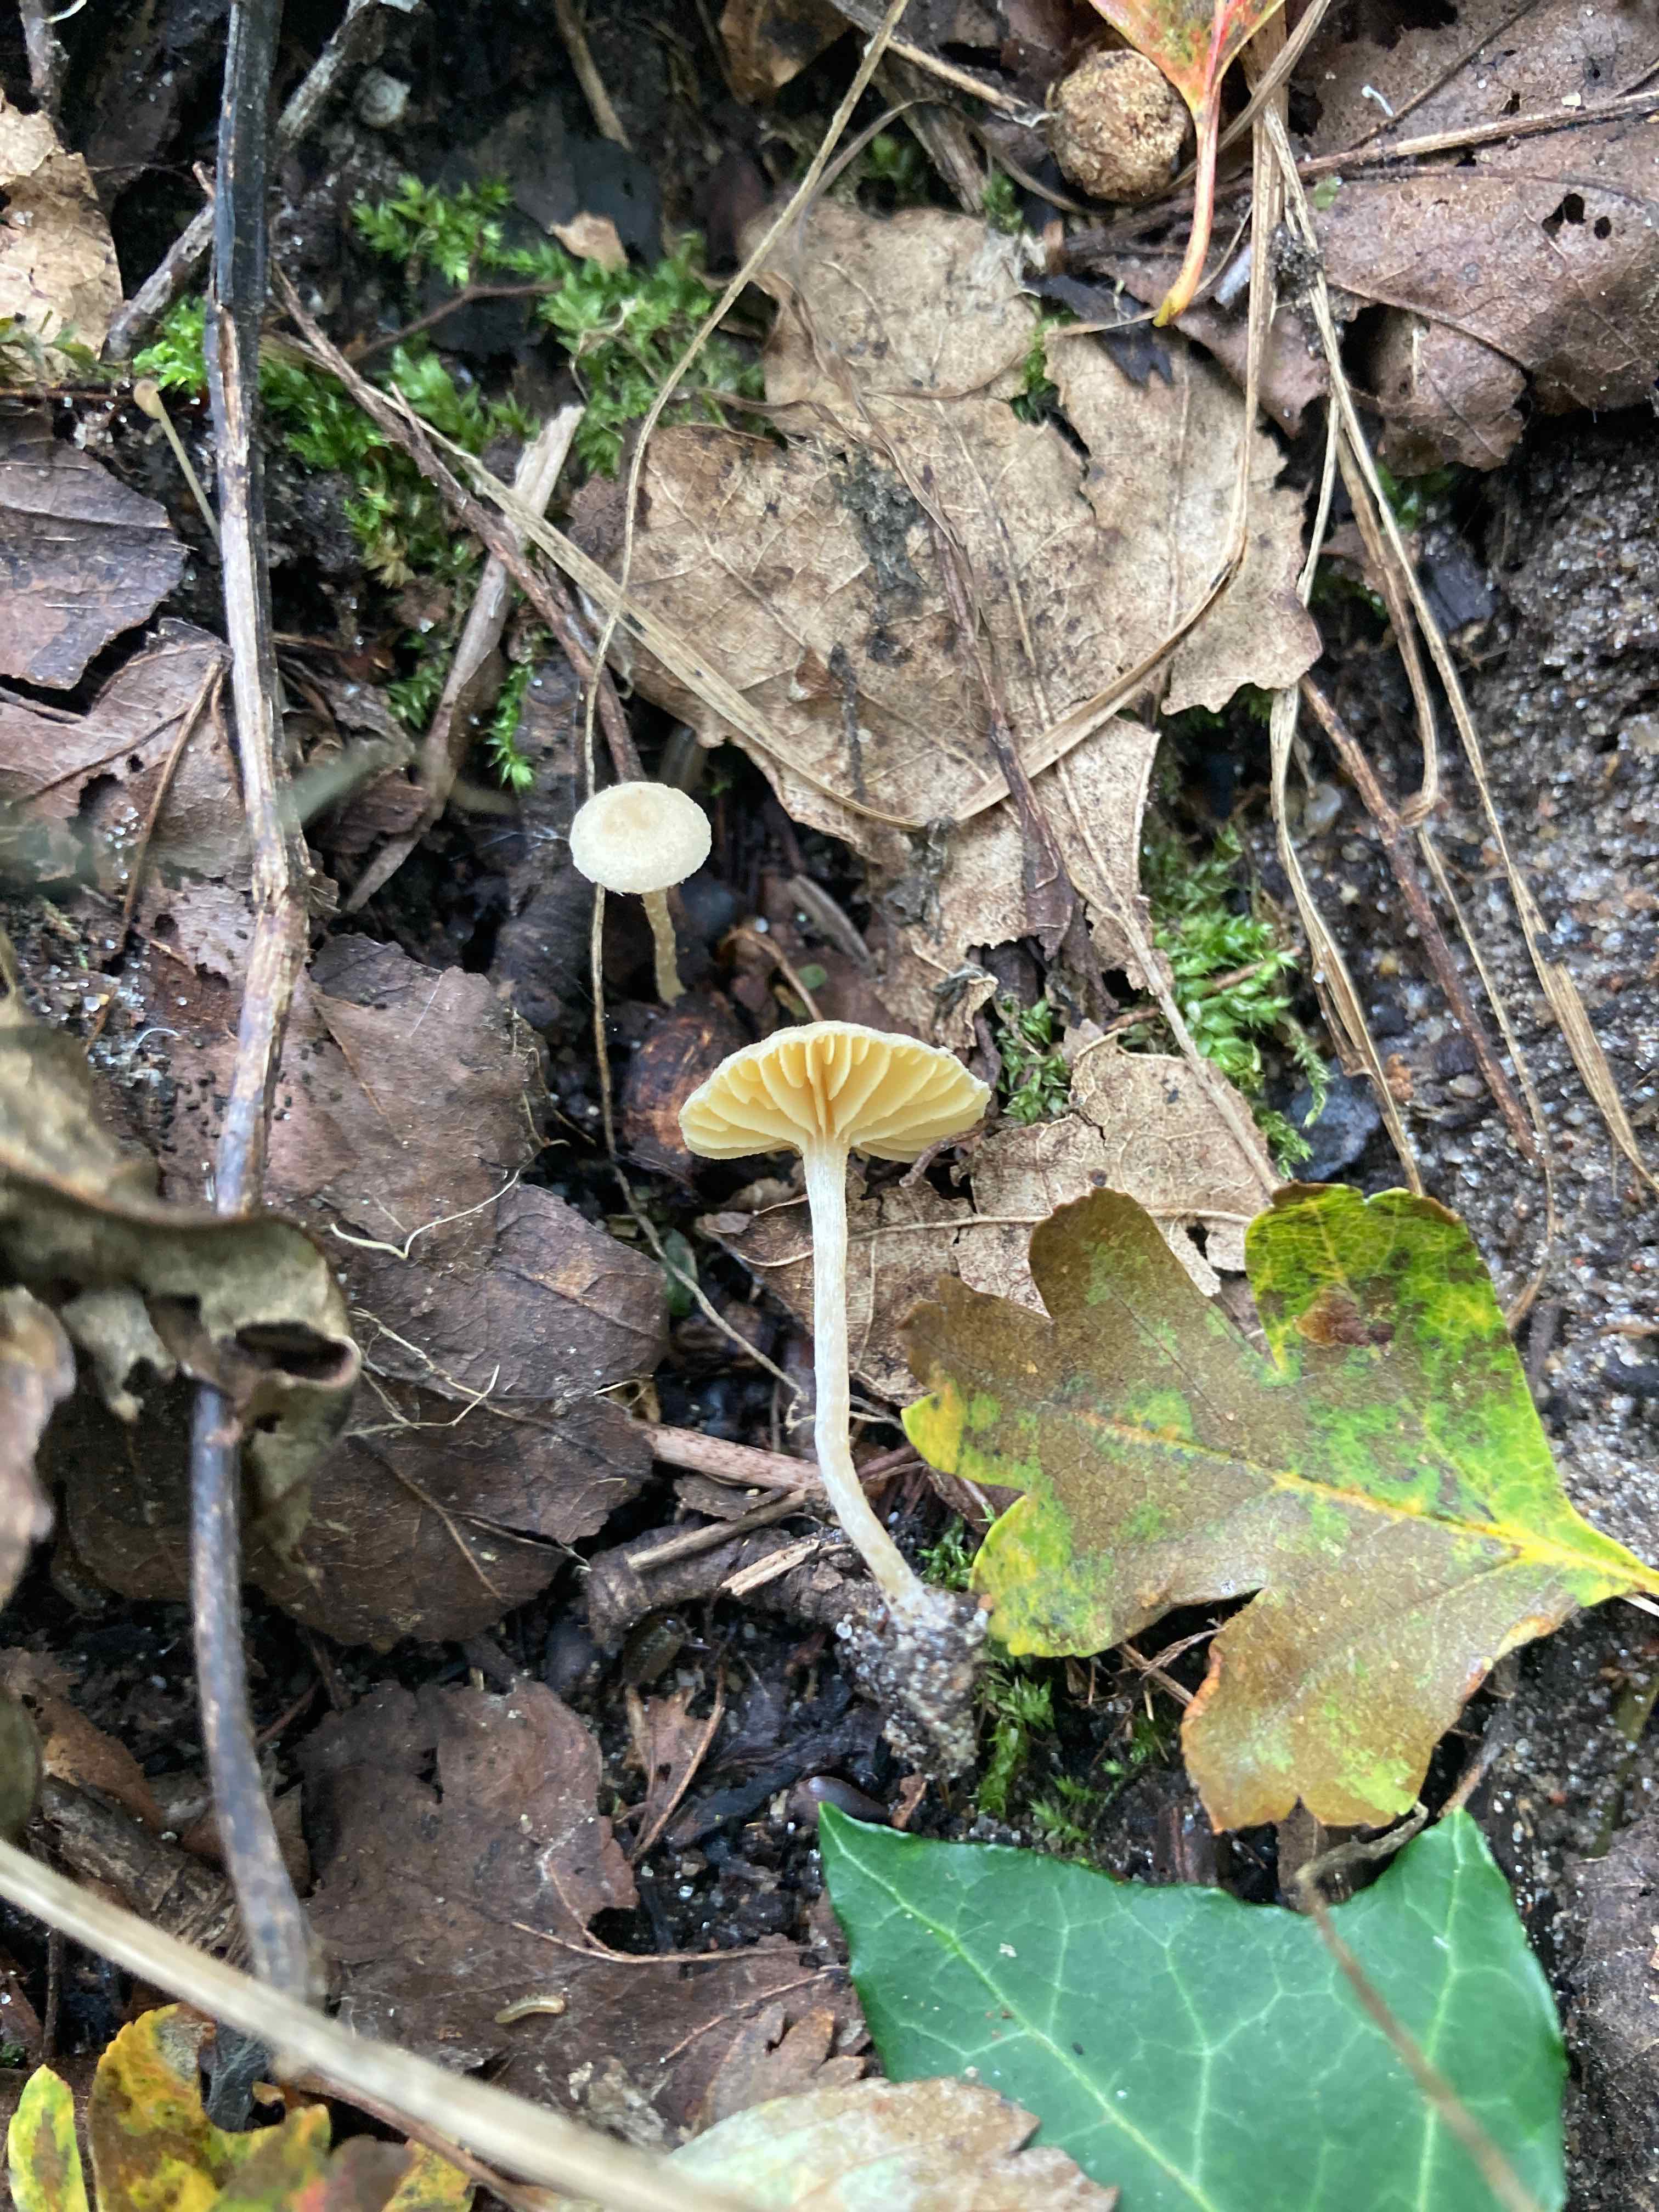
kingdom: Fungi
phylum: Basidiomycota
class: Agaricomycetes
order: Agaricales
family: Tubariaceae
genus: Tubaria
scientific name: Tubaria dispersa
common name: tjørne-fnughat
